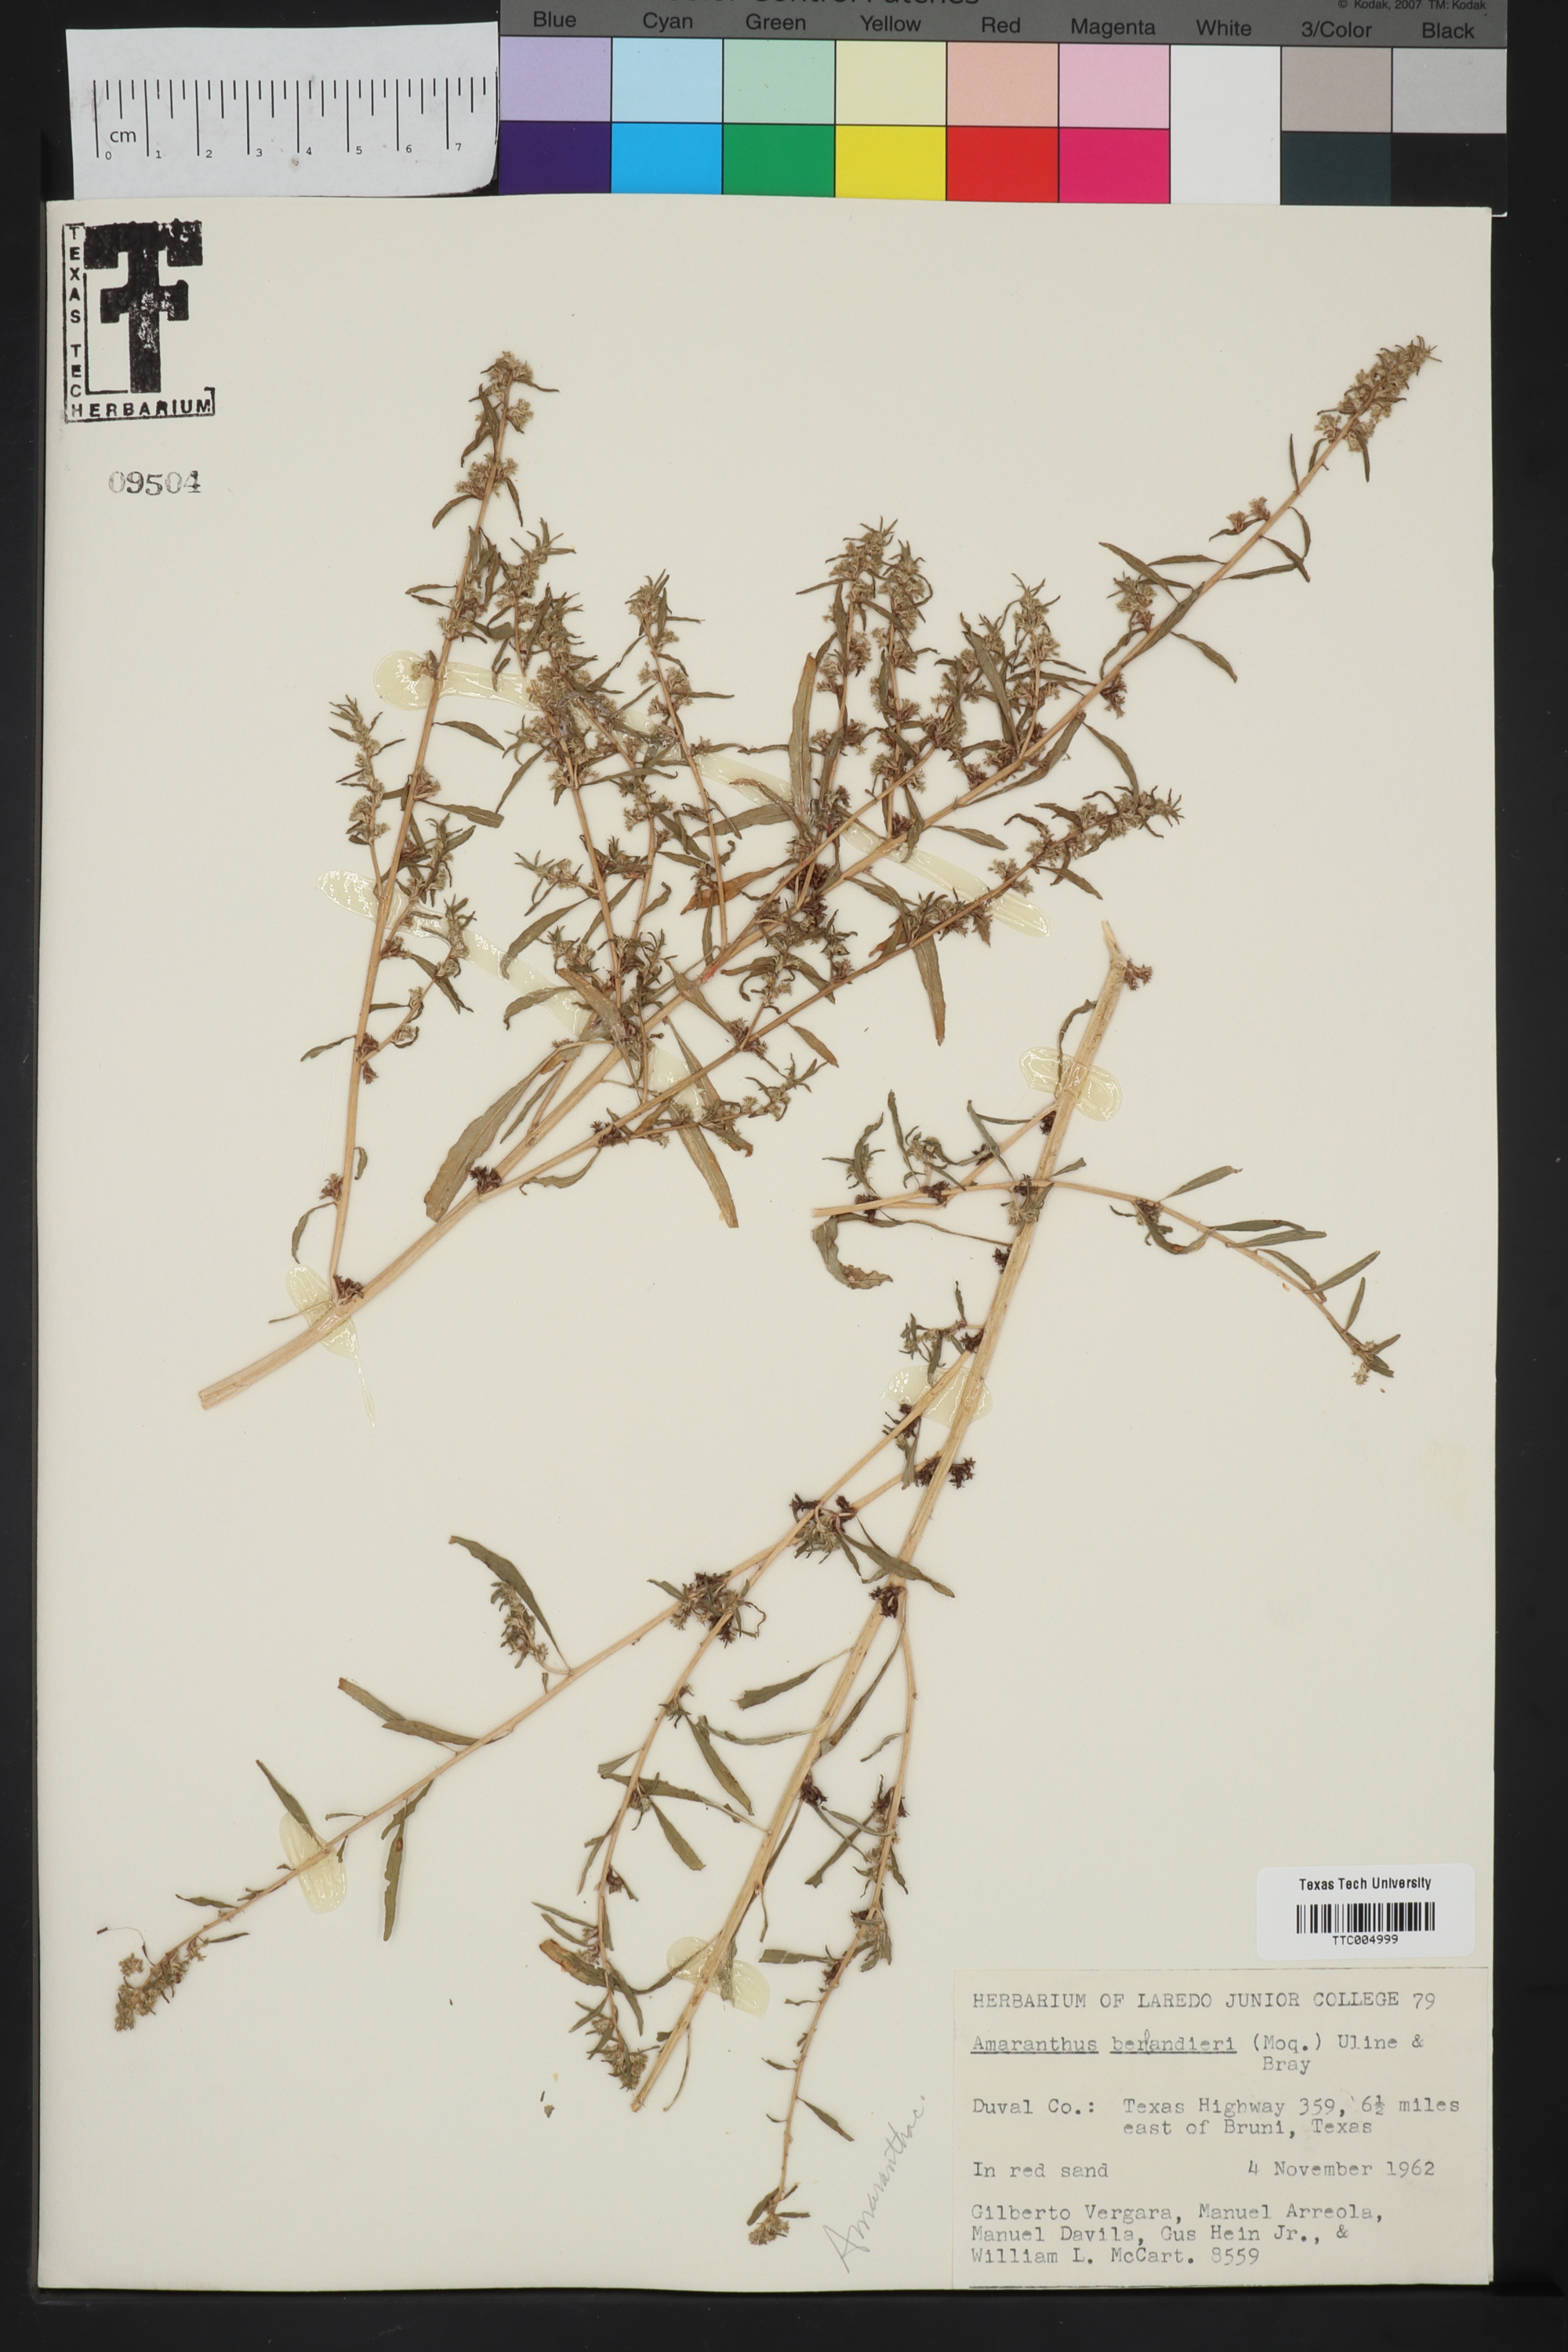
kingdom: Plantae
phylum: Tracheophyta
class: Magnoliopsida
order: Caryophyllales
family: Amaranthaceae
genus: Amaranthus
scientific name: Amaranthus polygonoides
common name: Tropical amaranth
